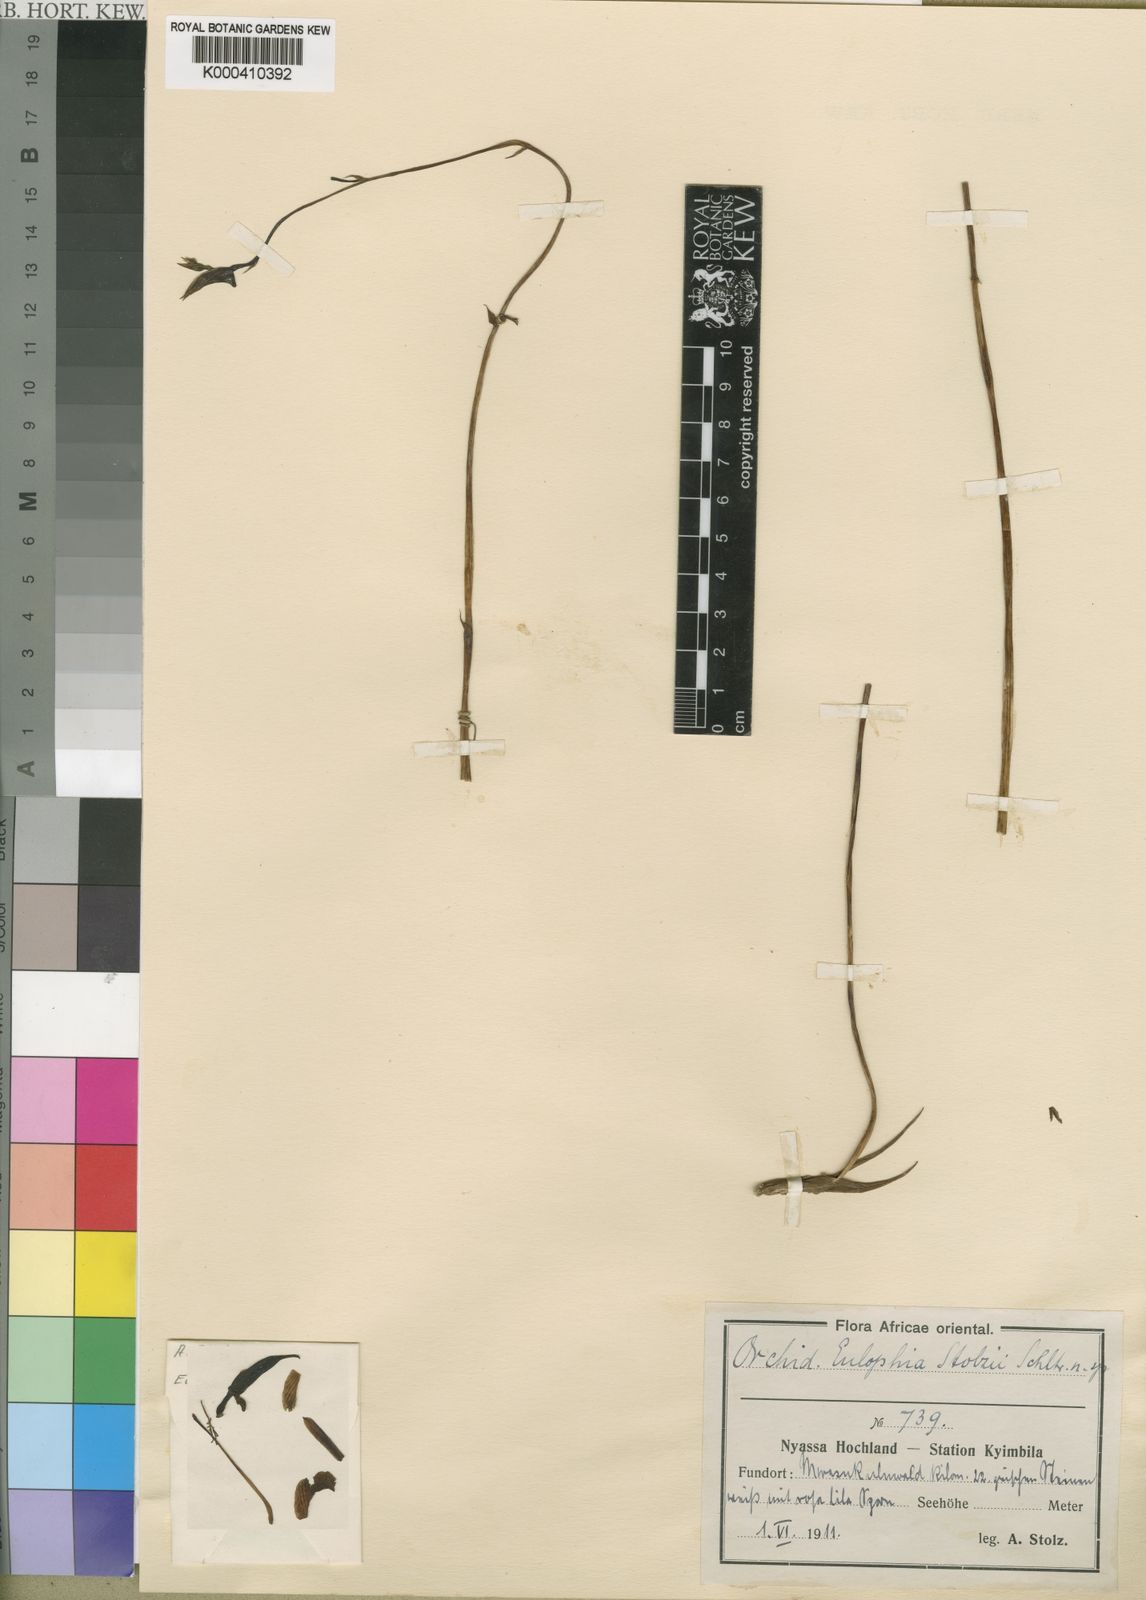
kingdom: Plantae
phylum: Tracheophyta
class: Liliopsida
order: Asparagales
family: Orchidaceae
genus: Eulophia
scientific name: Eulophia longisepala
